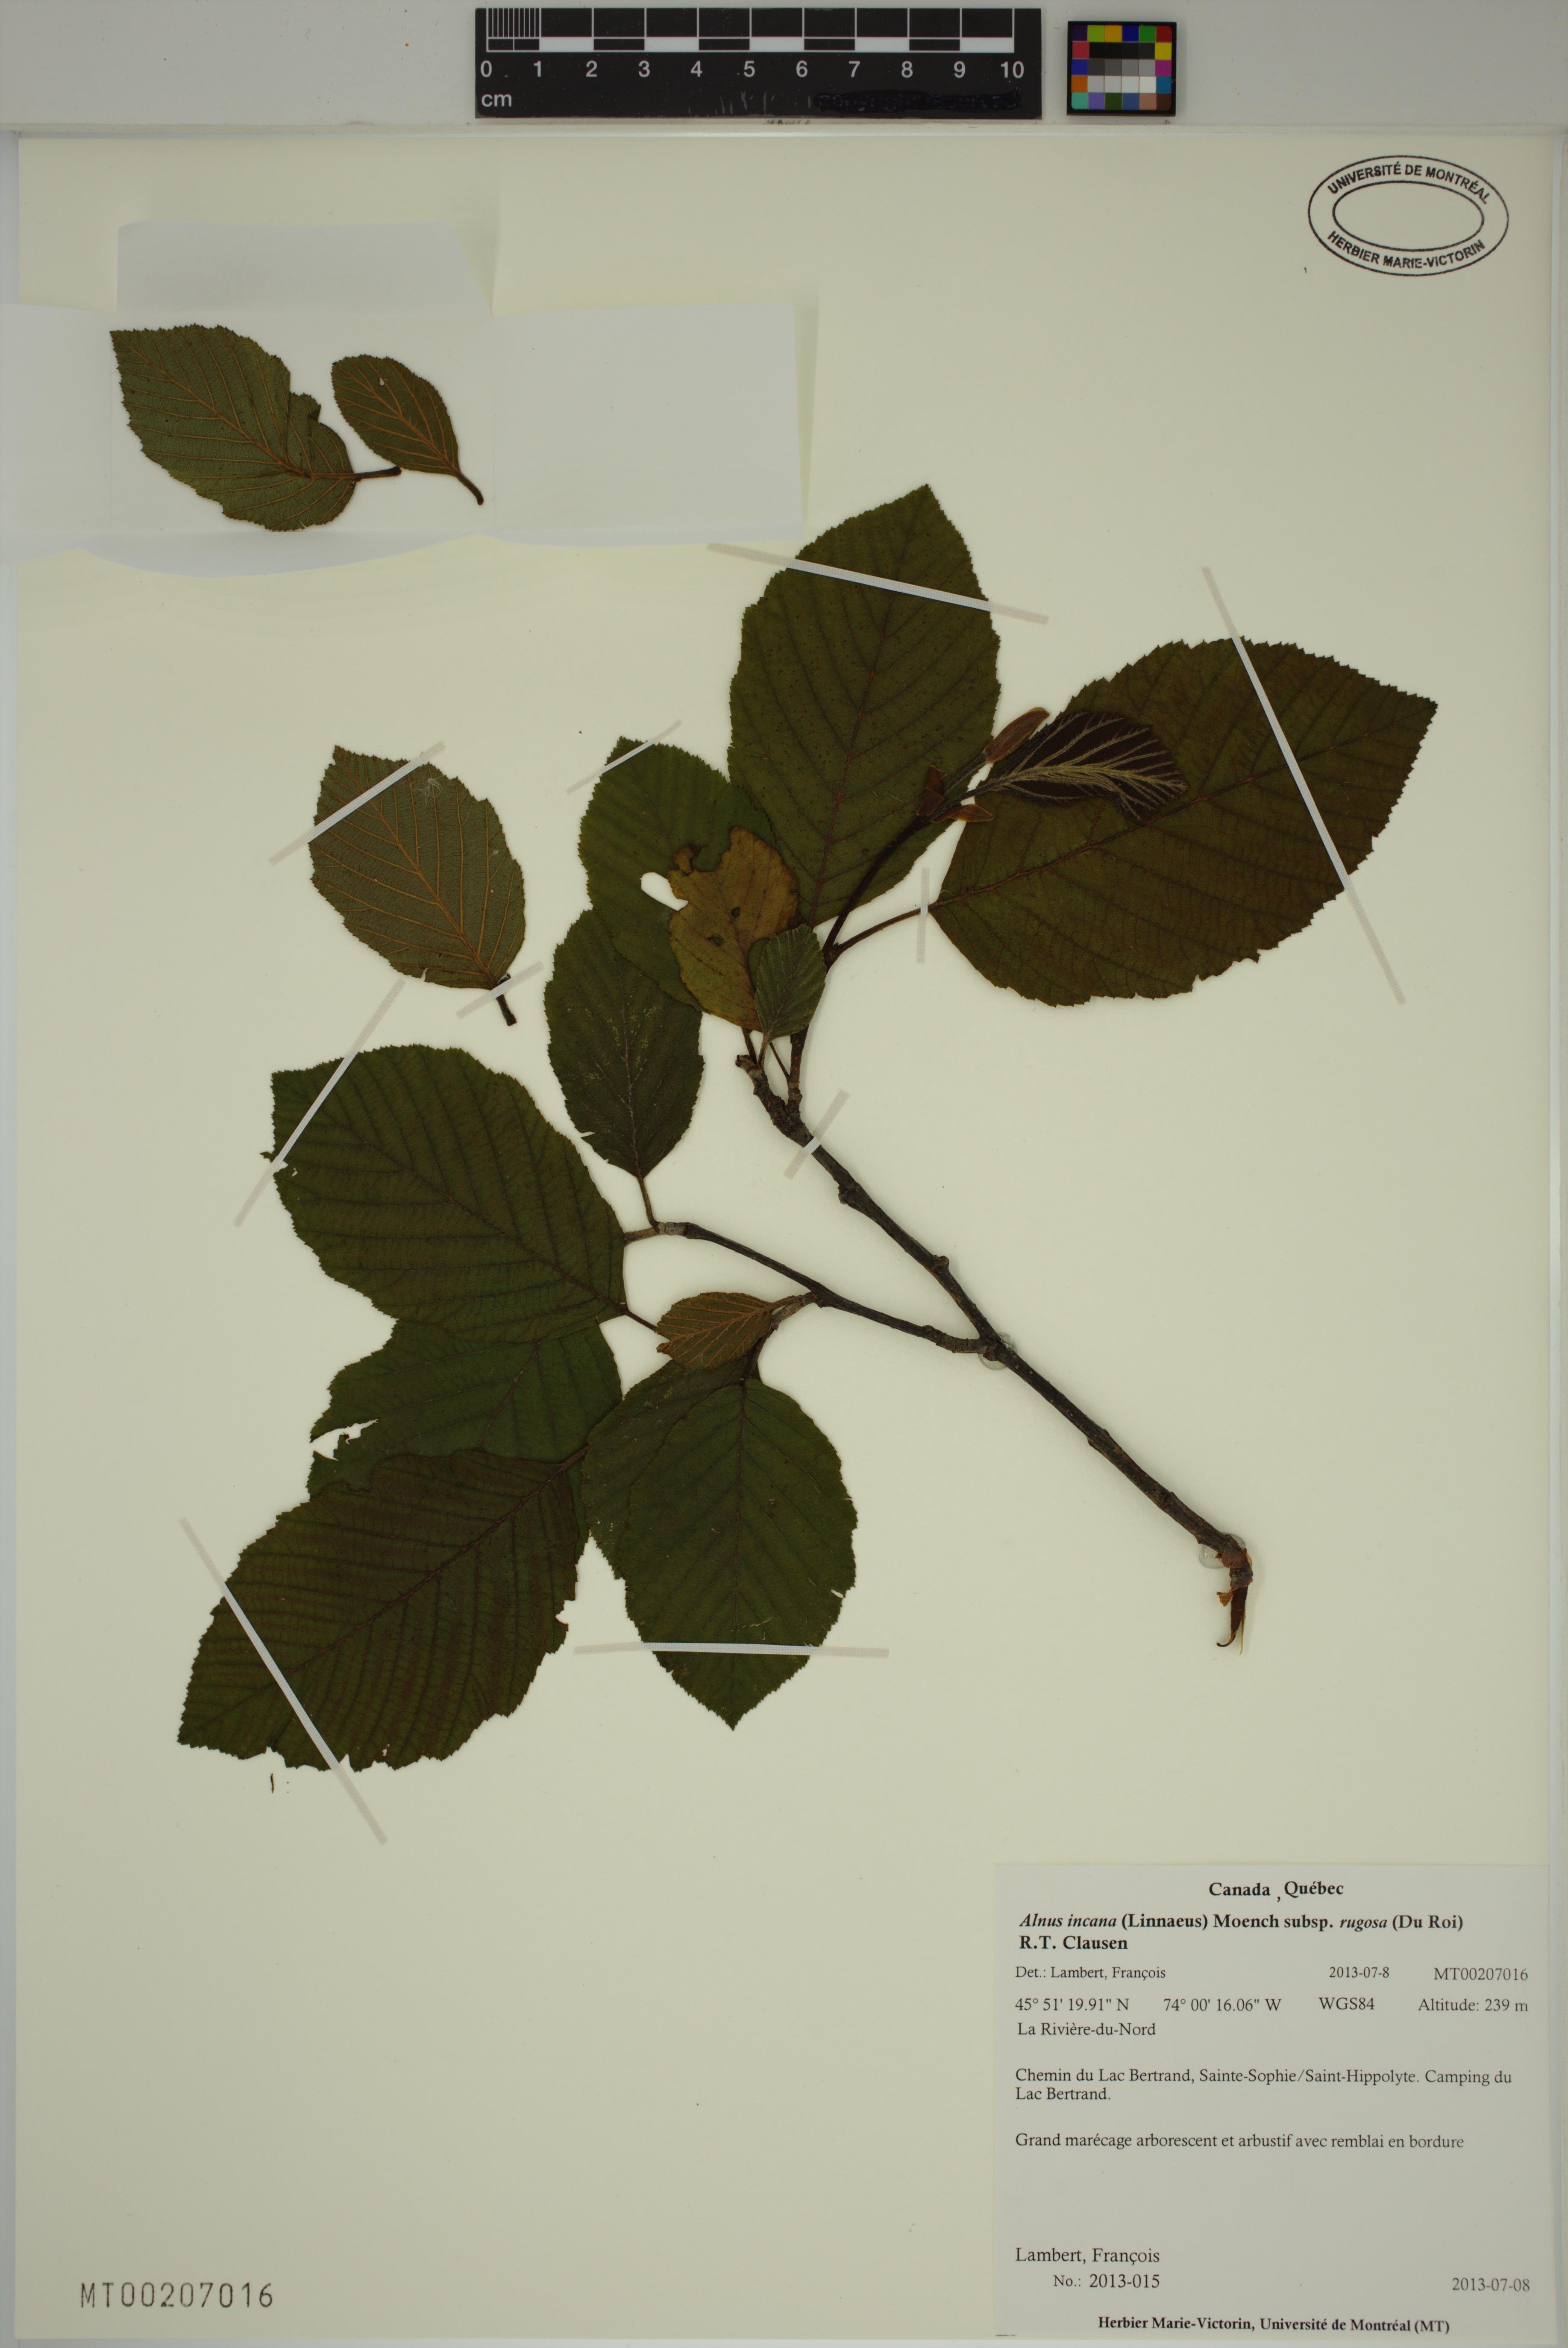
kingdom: Plantae
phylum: Tracheophyta
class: Magnoliopsida
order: Fagales
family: Betulaceae
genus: Alnus
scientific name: Alnus incana
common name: Grey alder
